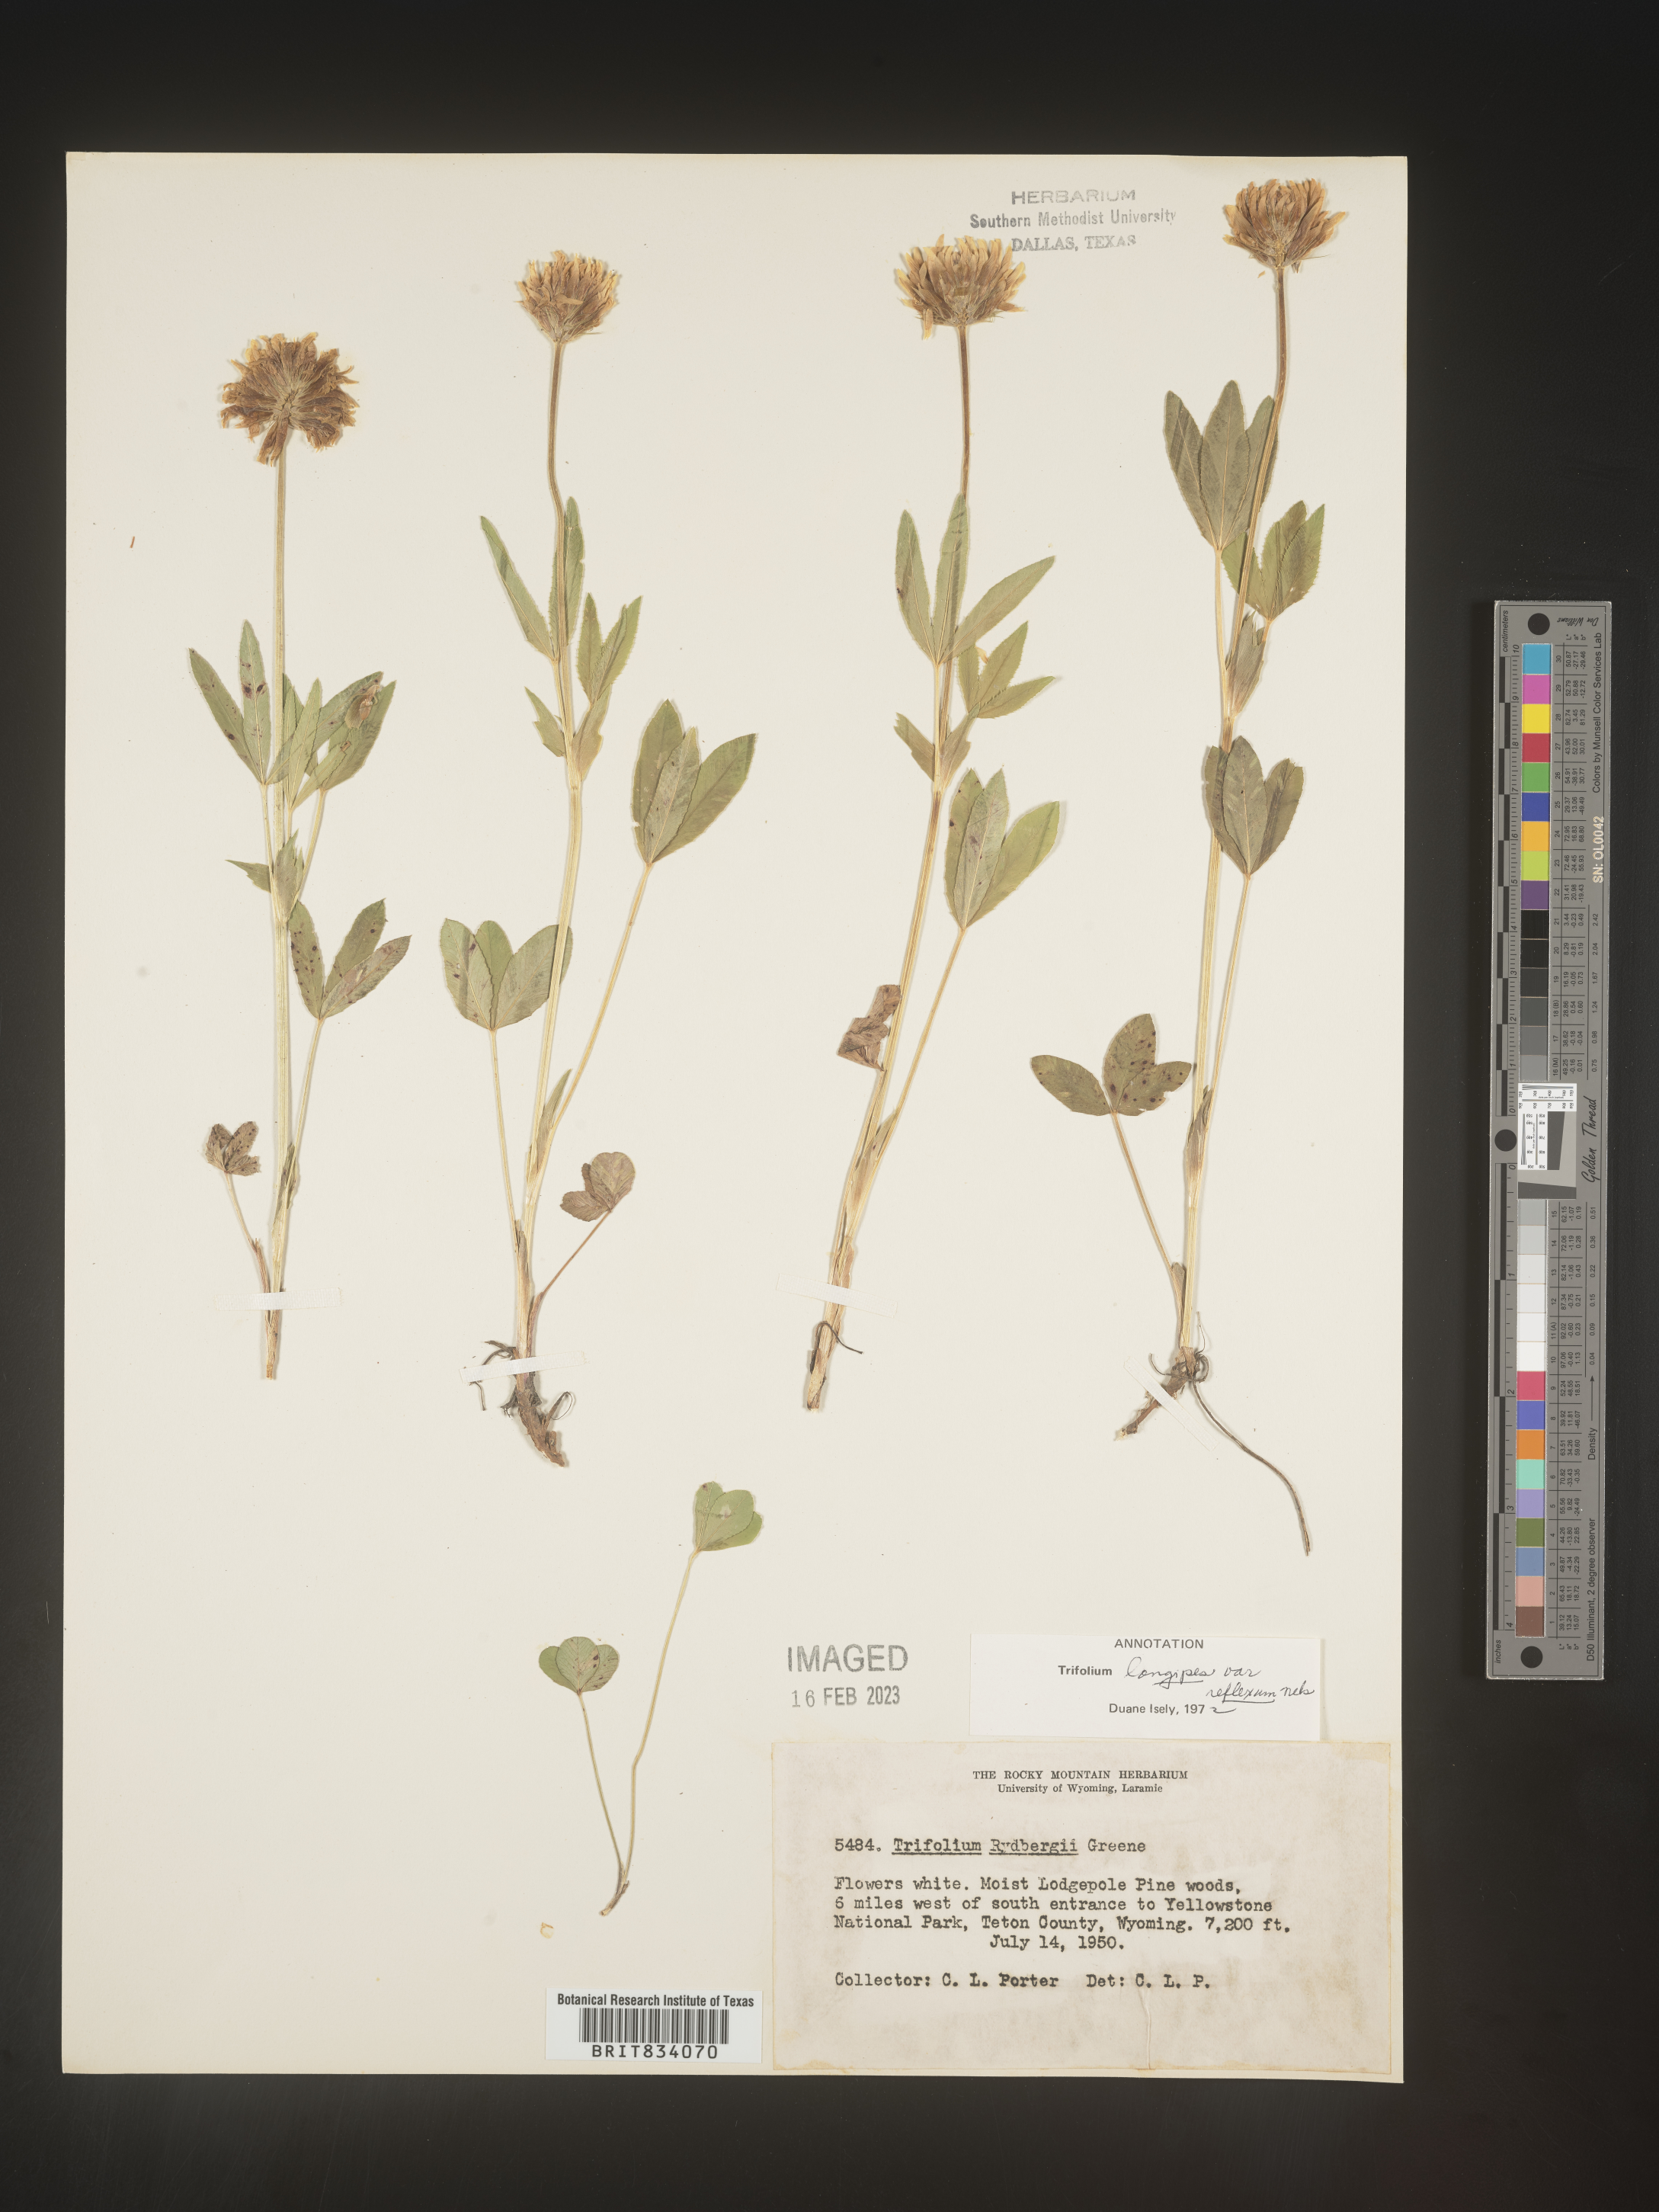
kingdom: Plantae
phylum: Tracheophyta
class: Magnoliopsida
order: Fabales
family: Fabaceae
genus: Trifolium
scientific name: Trifolium
